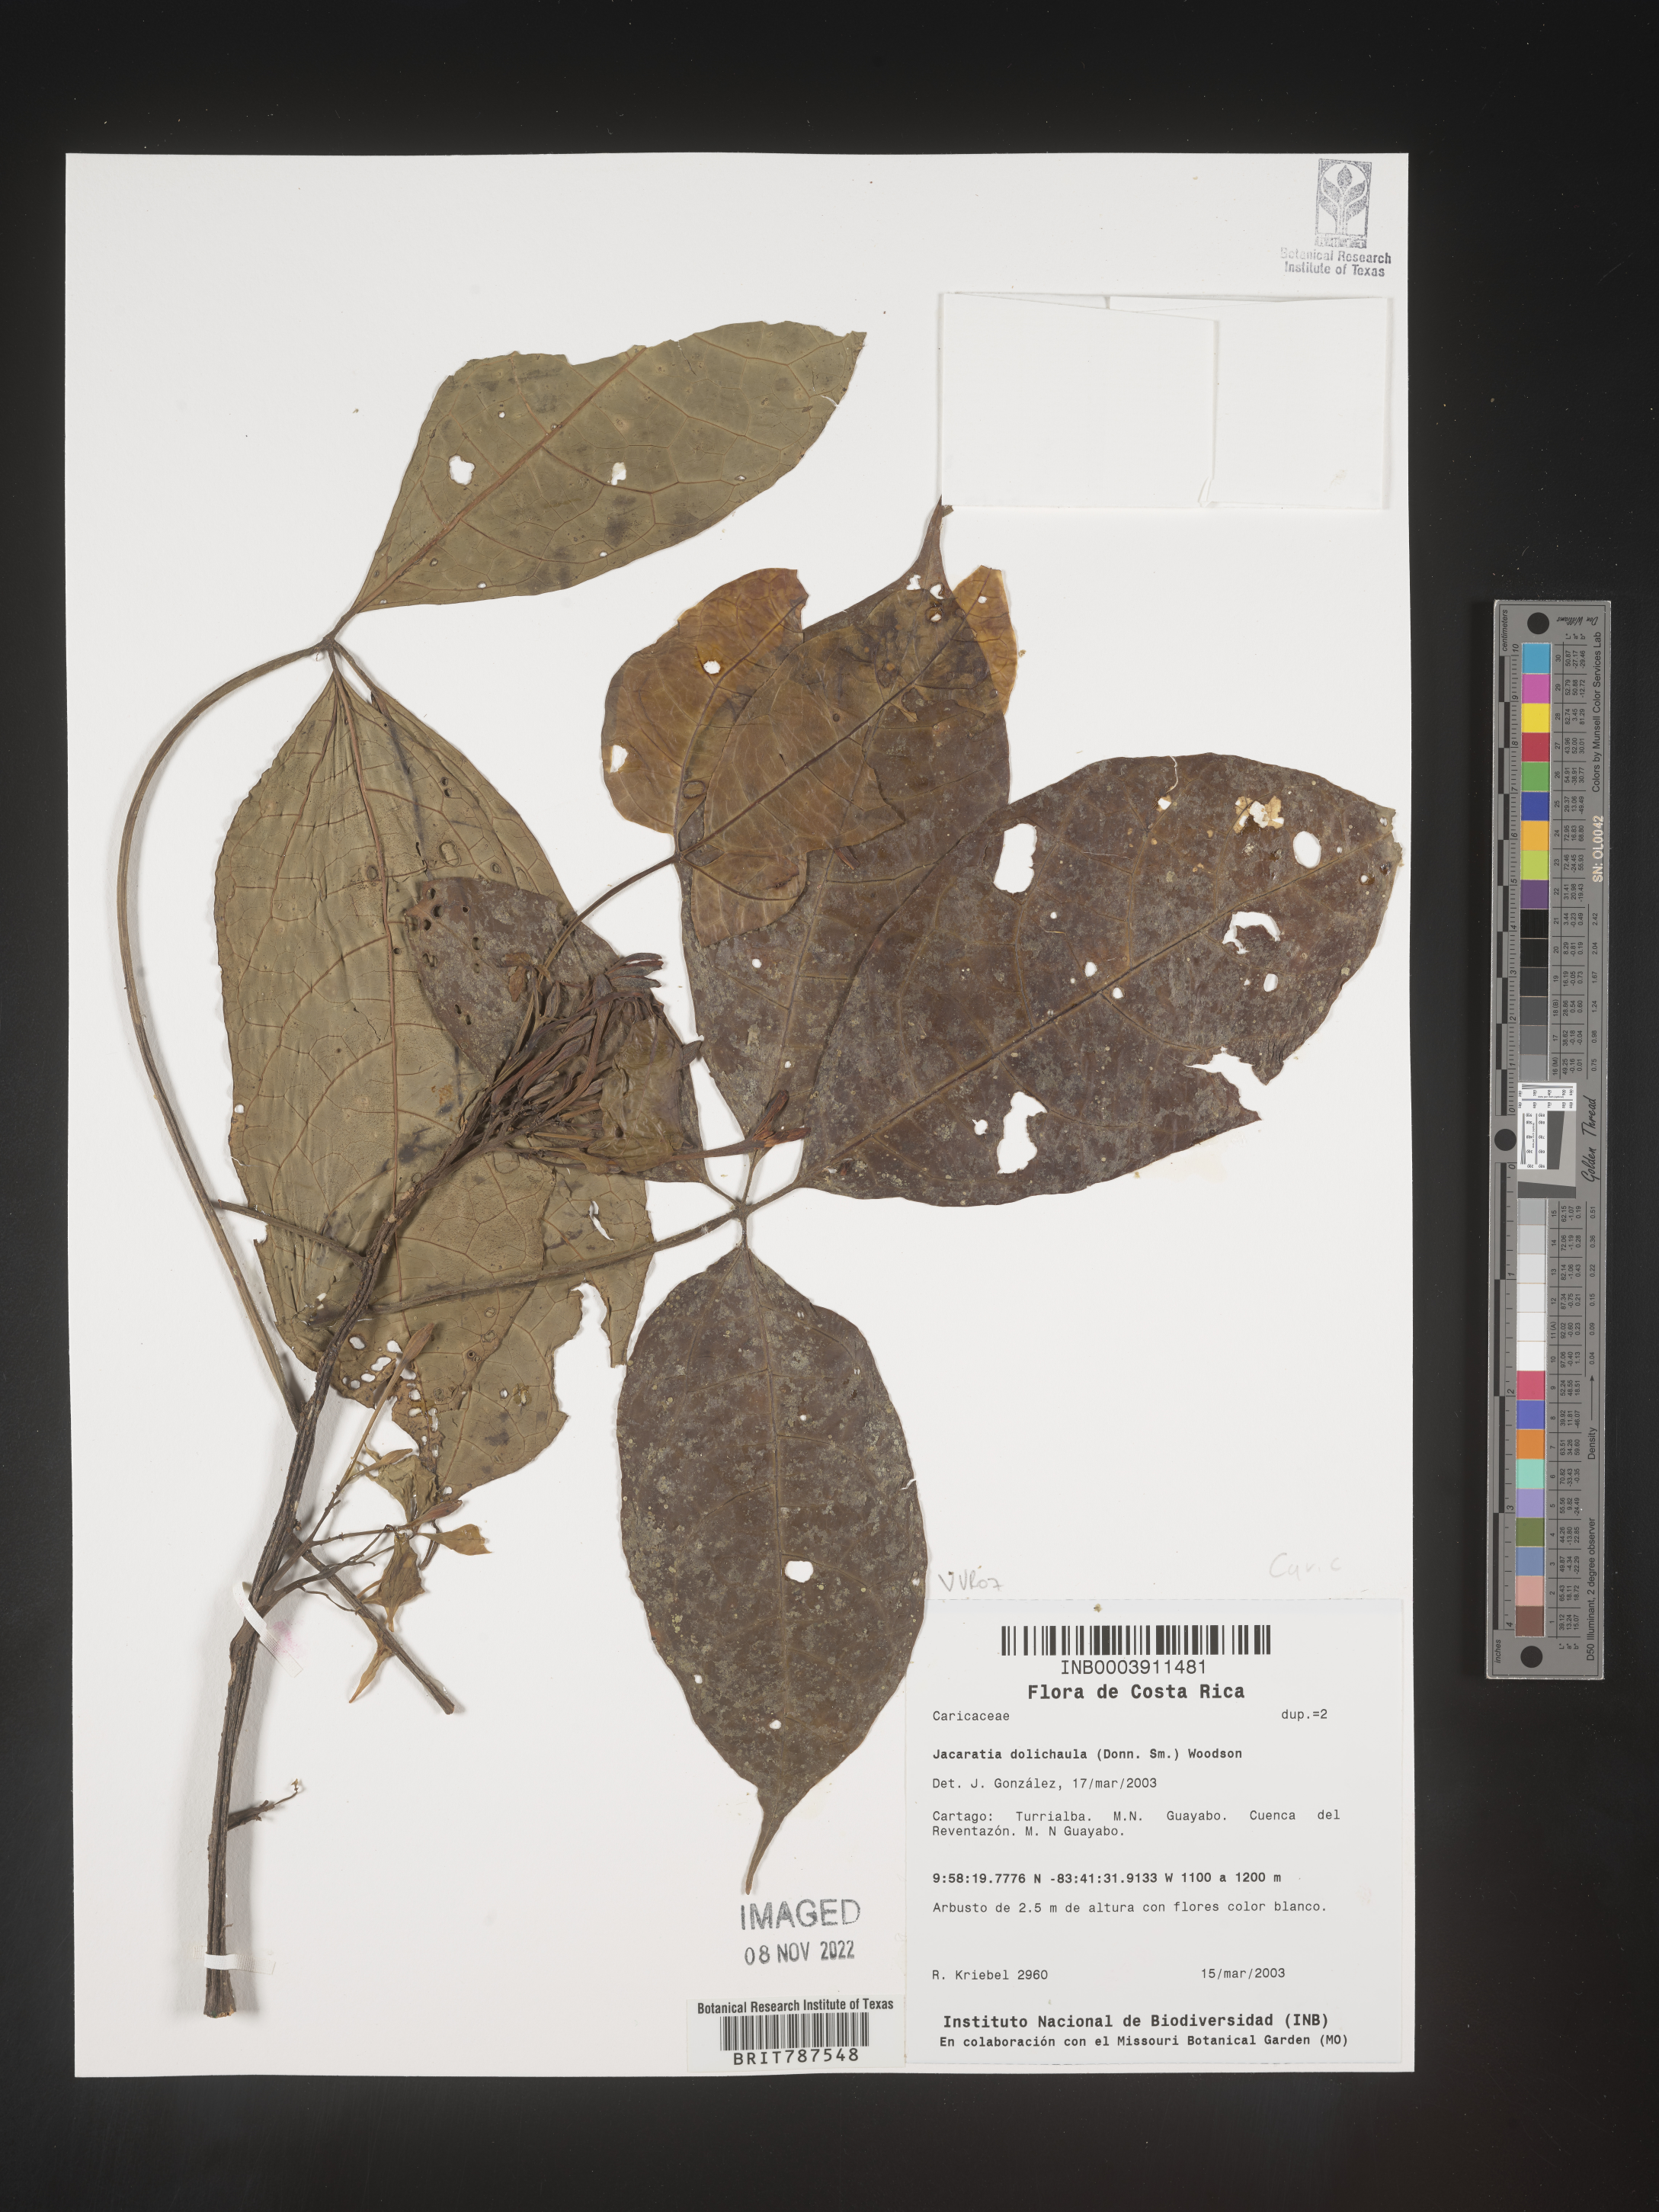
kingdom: Plantae
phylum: Tracheophyta
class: Magnoliopsida
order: Brassicales
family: Caricaceae
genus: Jacaratia
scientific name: Jacaratia
